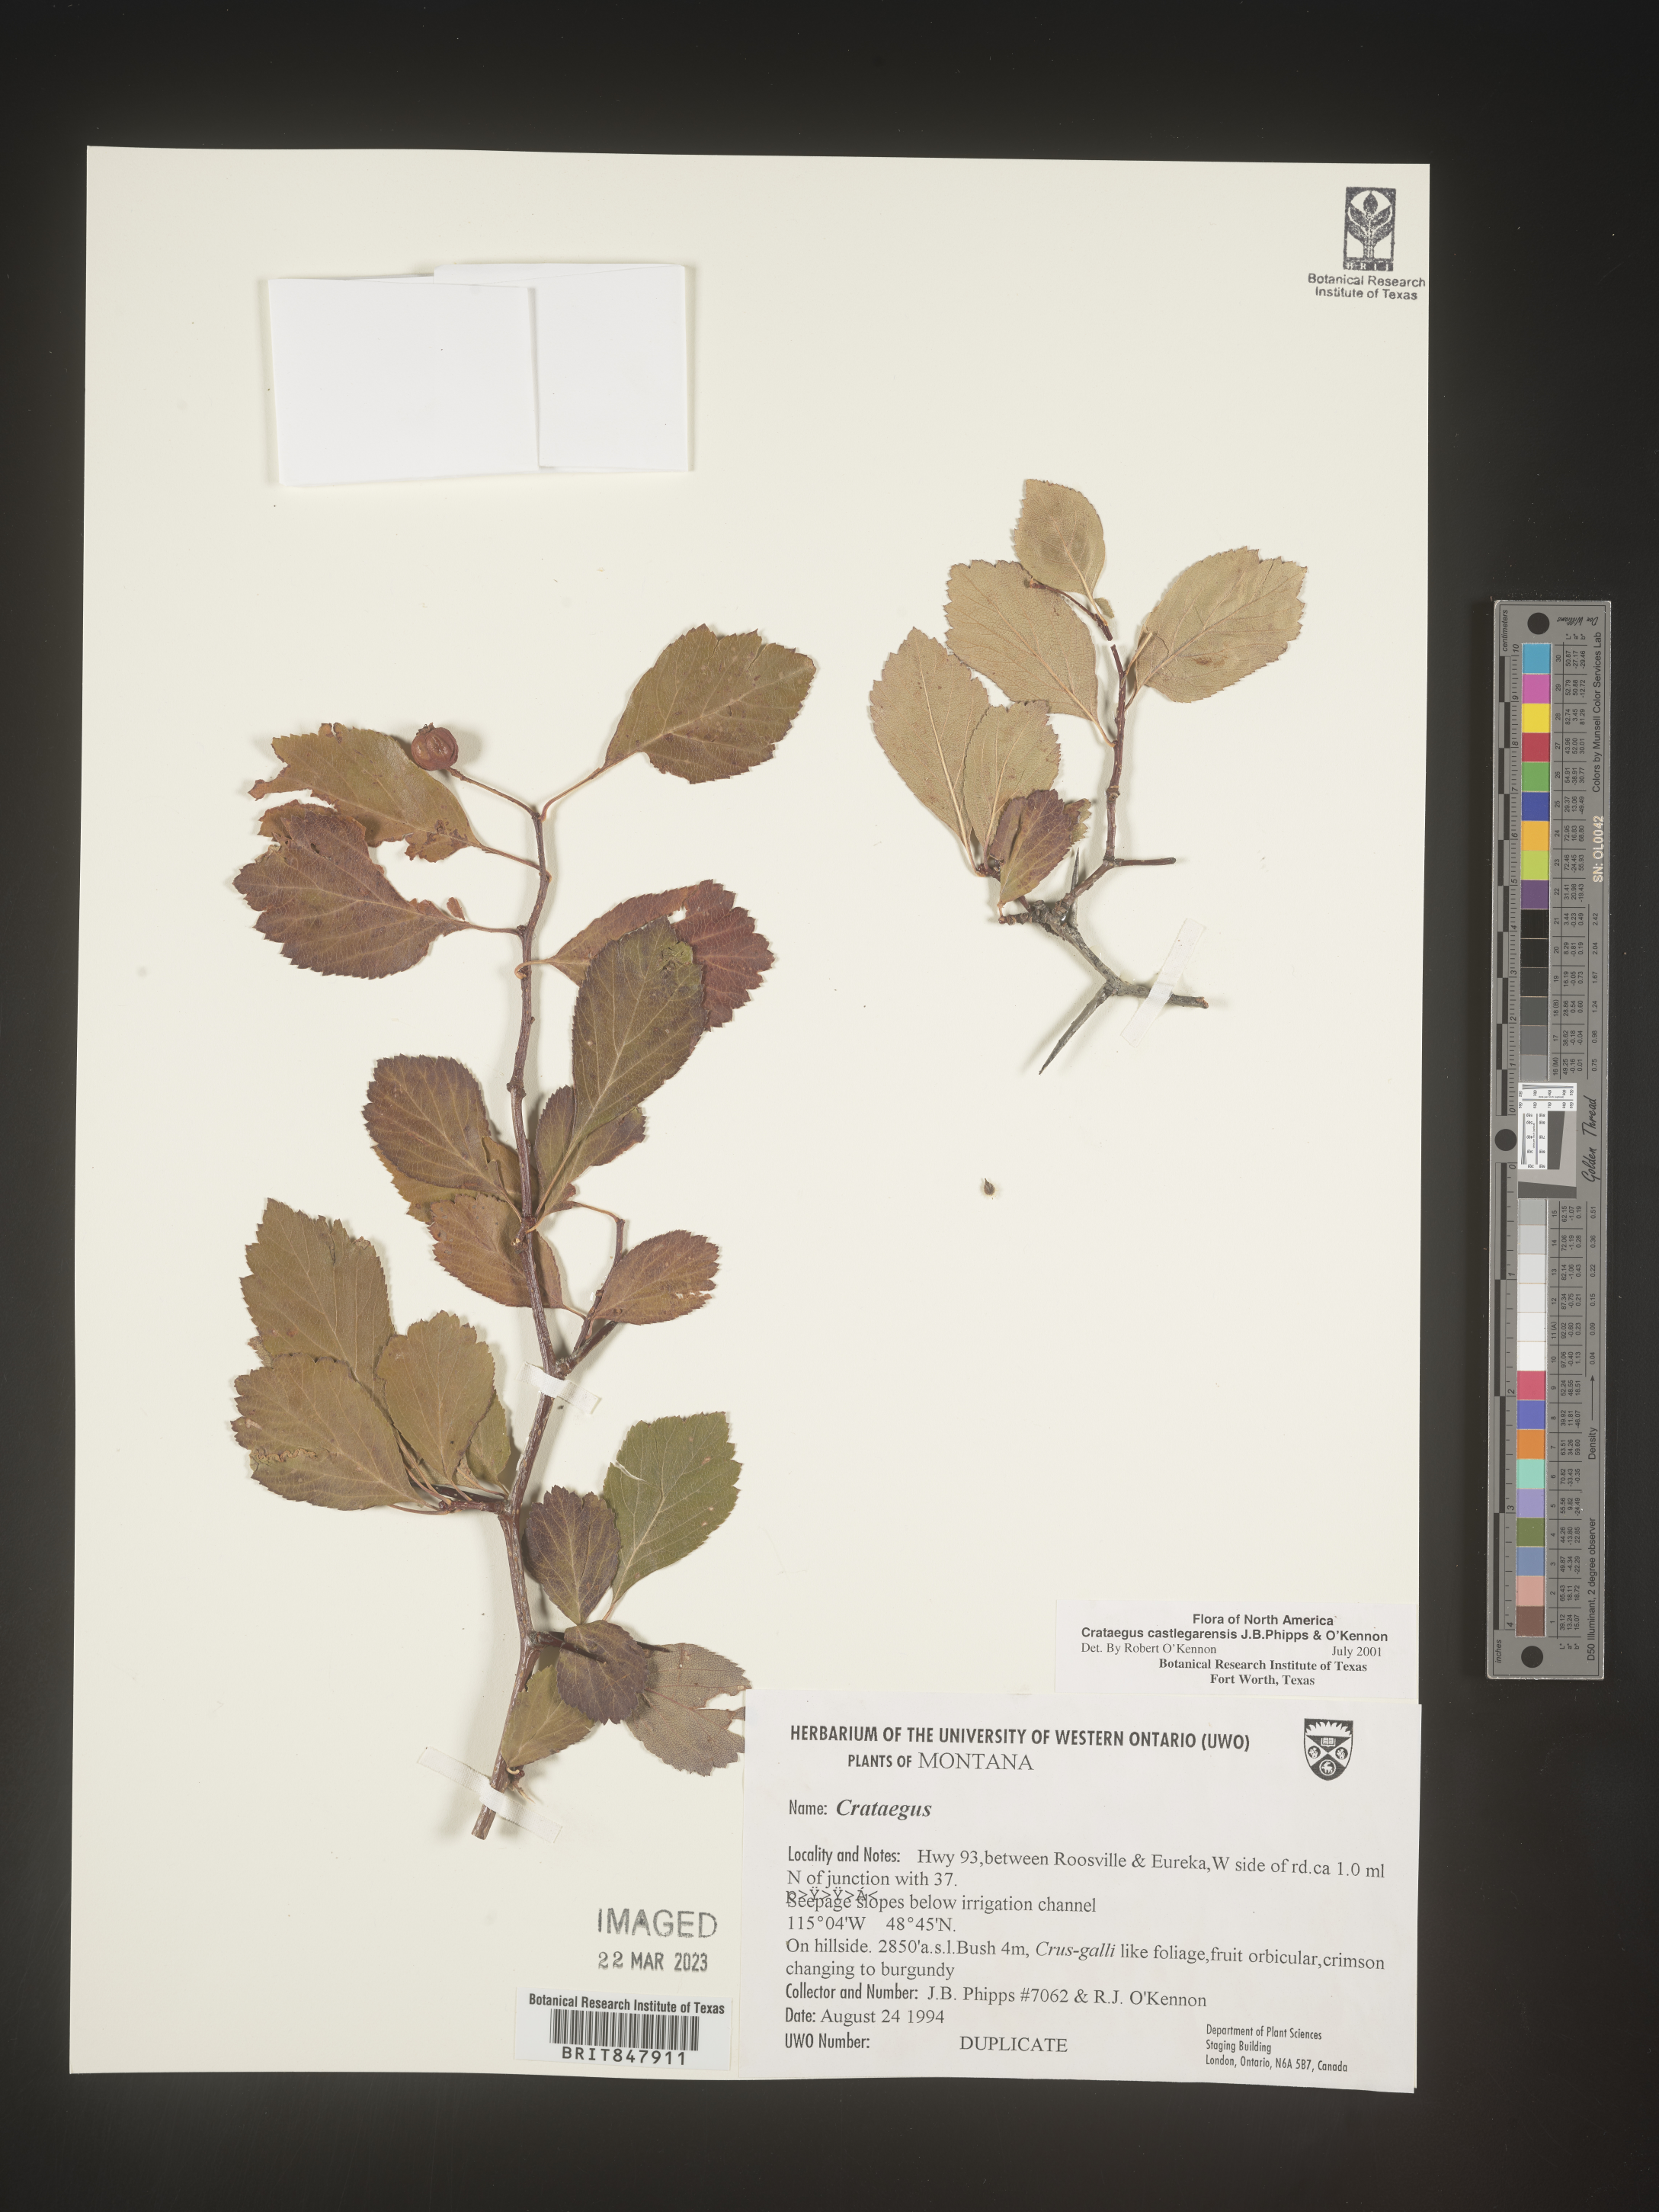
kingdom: Plantae
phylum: Tracheophyta
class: Magnoliopsida
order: Rosales
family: Rosaceae
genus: Crataegus
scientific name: Crataegus castlegarensis
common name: Castlegar hawthorn
